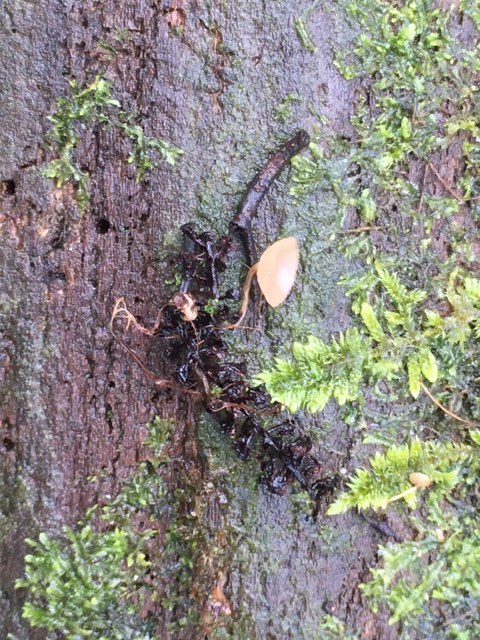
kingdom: Fungi
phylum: Ascomycota
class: Leotiomycetes
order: Helotiales
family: Sclerotiniaceae
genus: Ciboria
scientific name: Ciboria amentacea
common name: ellerakle-knoldskive
